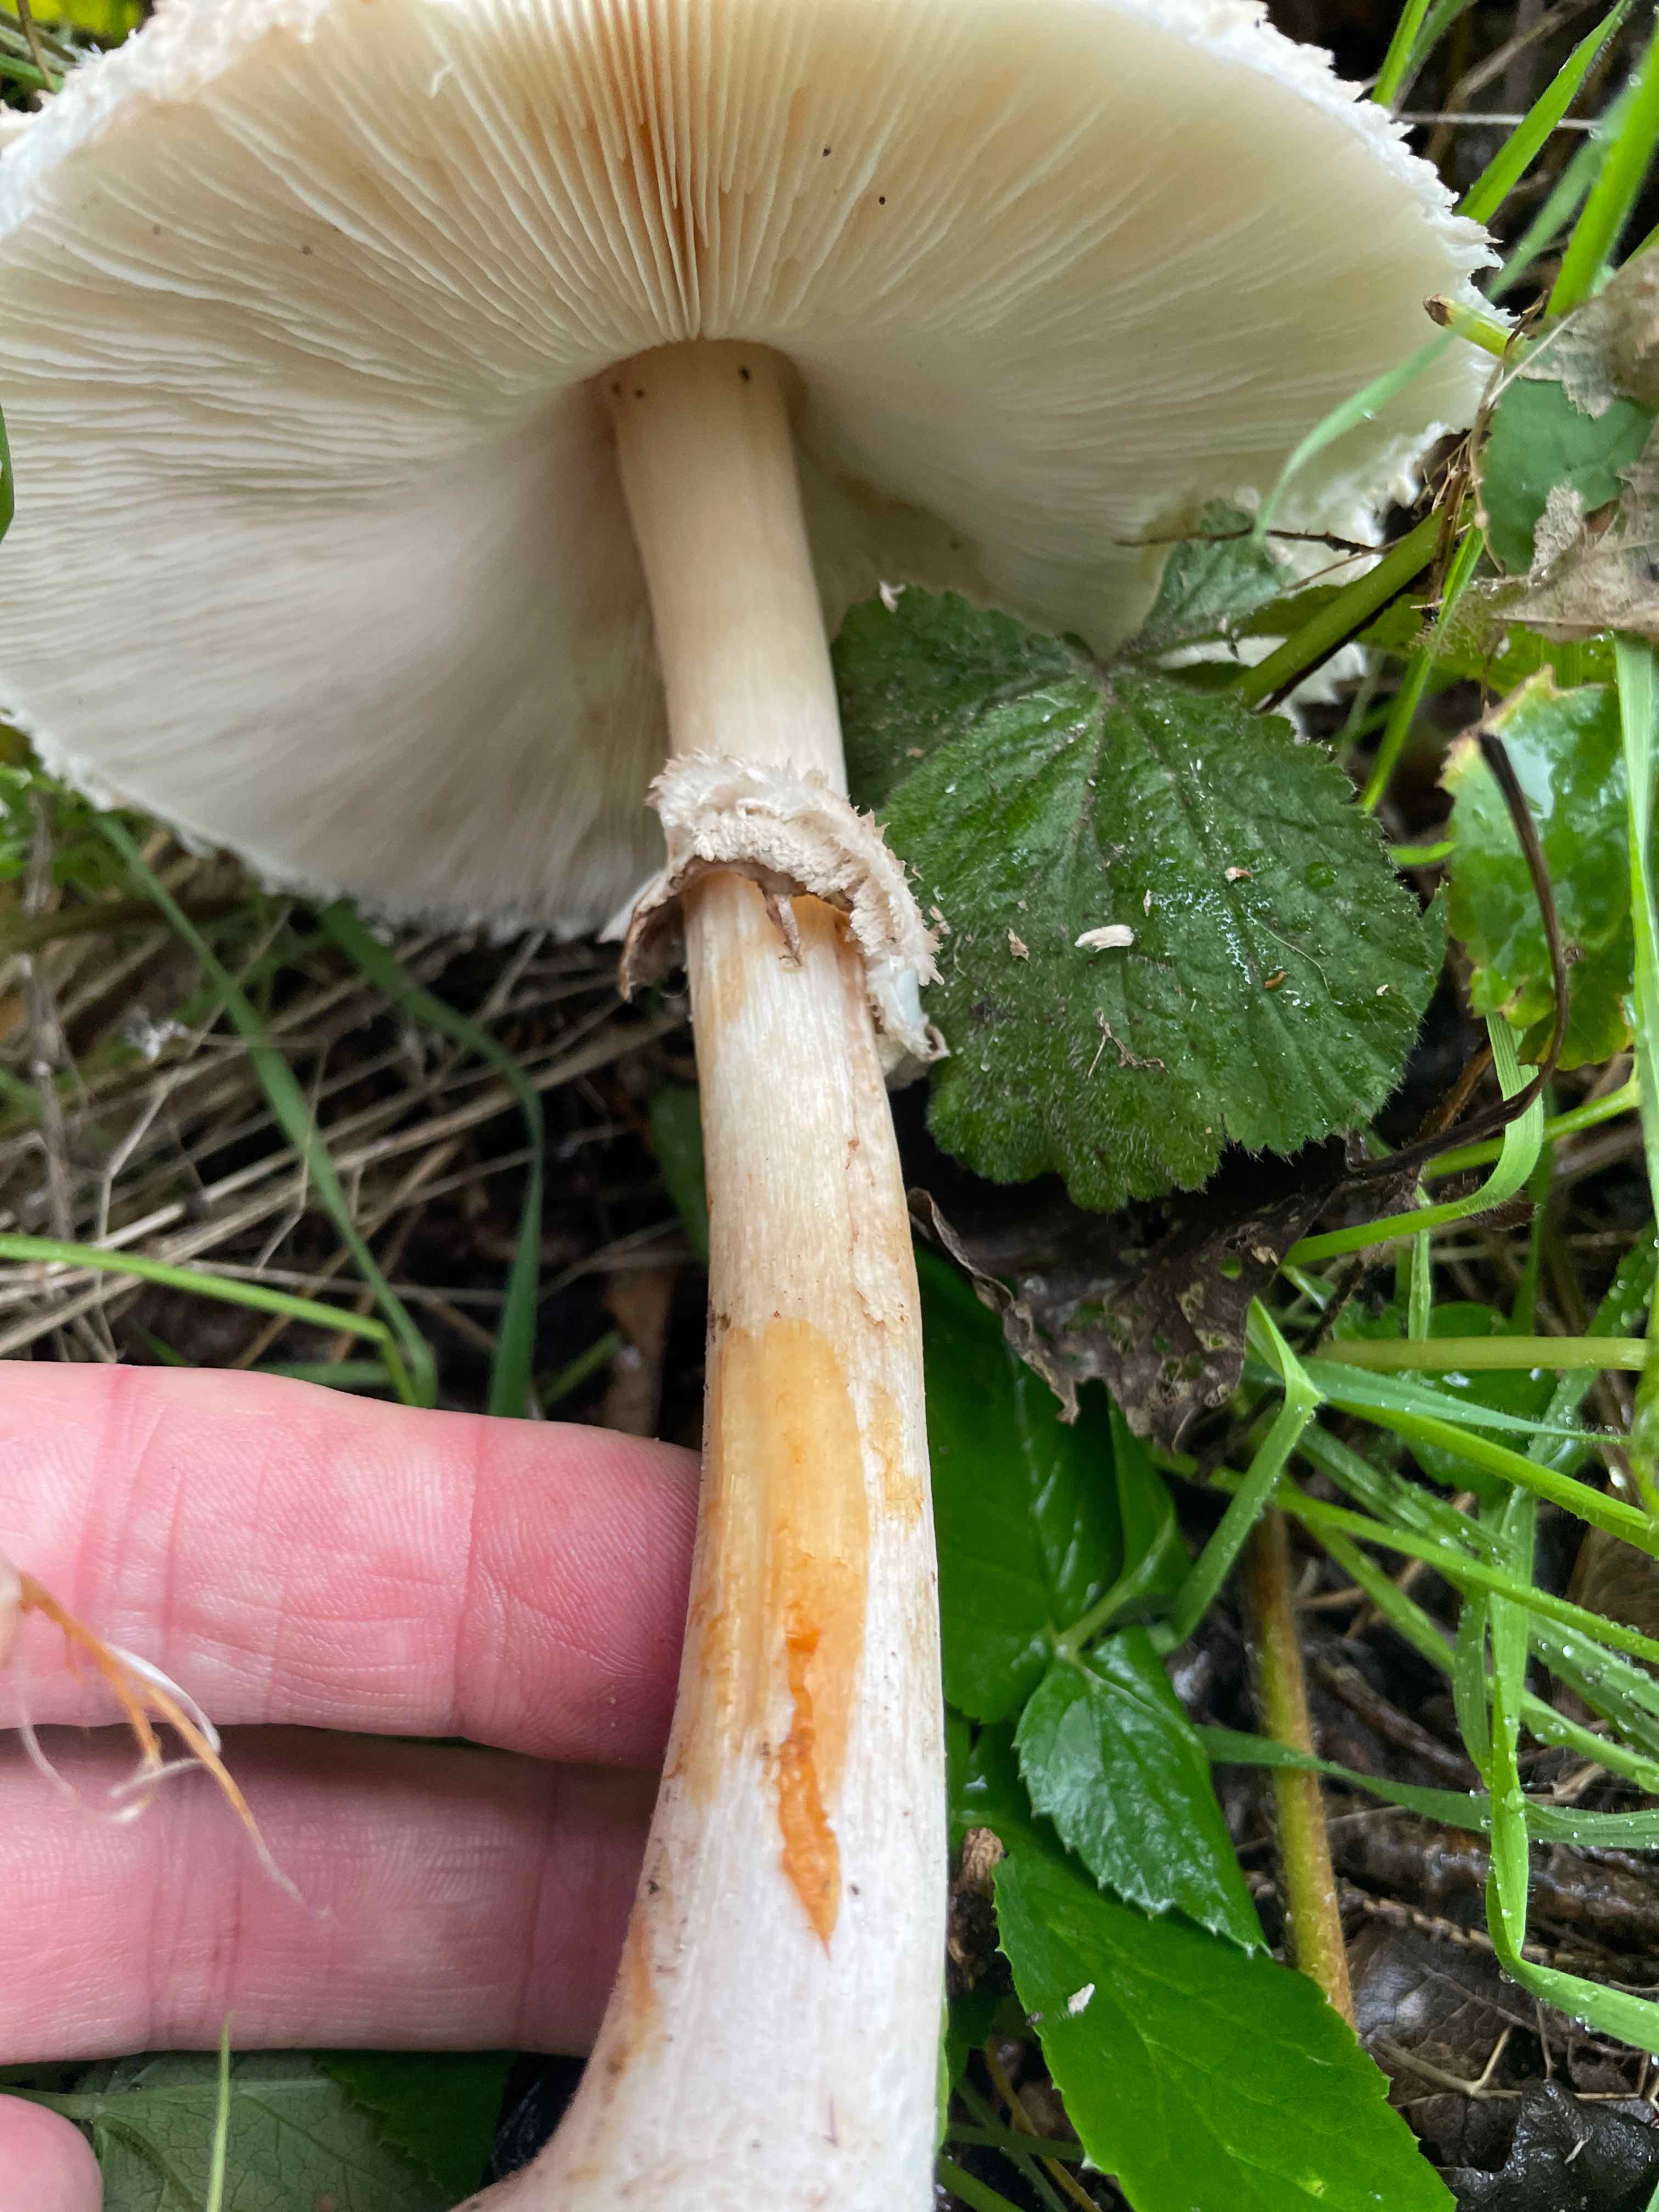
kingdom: Fungi
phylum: Basidiomycota
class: Agaricomycetes
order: Agaricales
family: Agaricaceae
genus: Chlorophyllum
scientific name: Chlorophyllum rhacodes
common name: ægte rabarberhat
